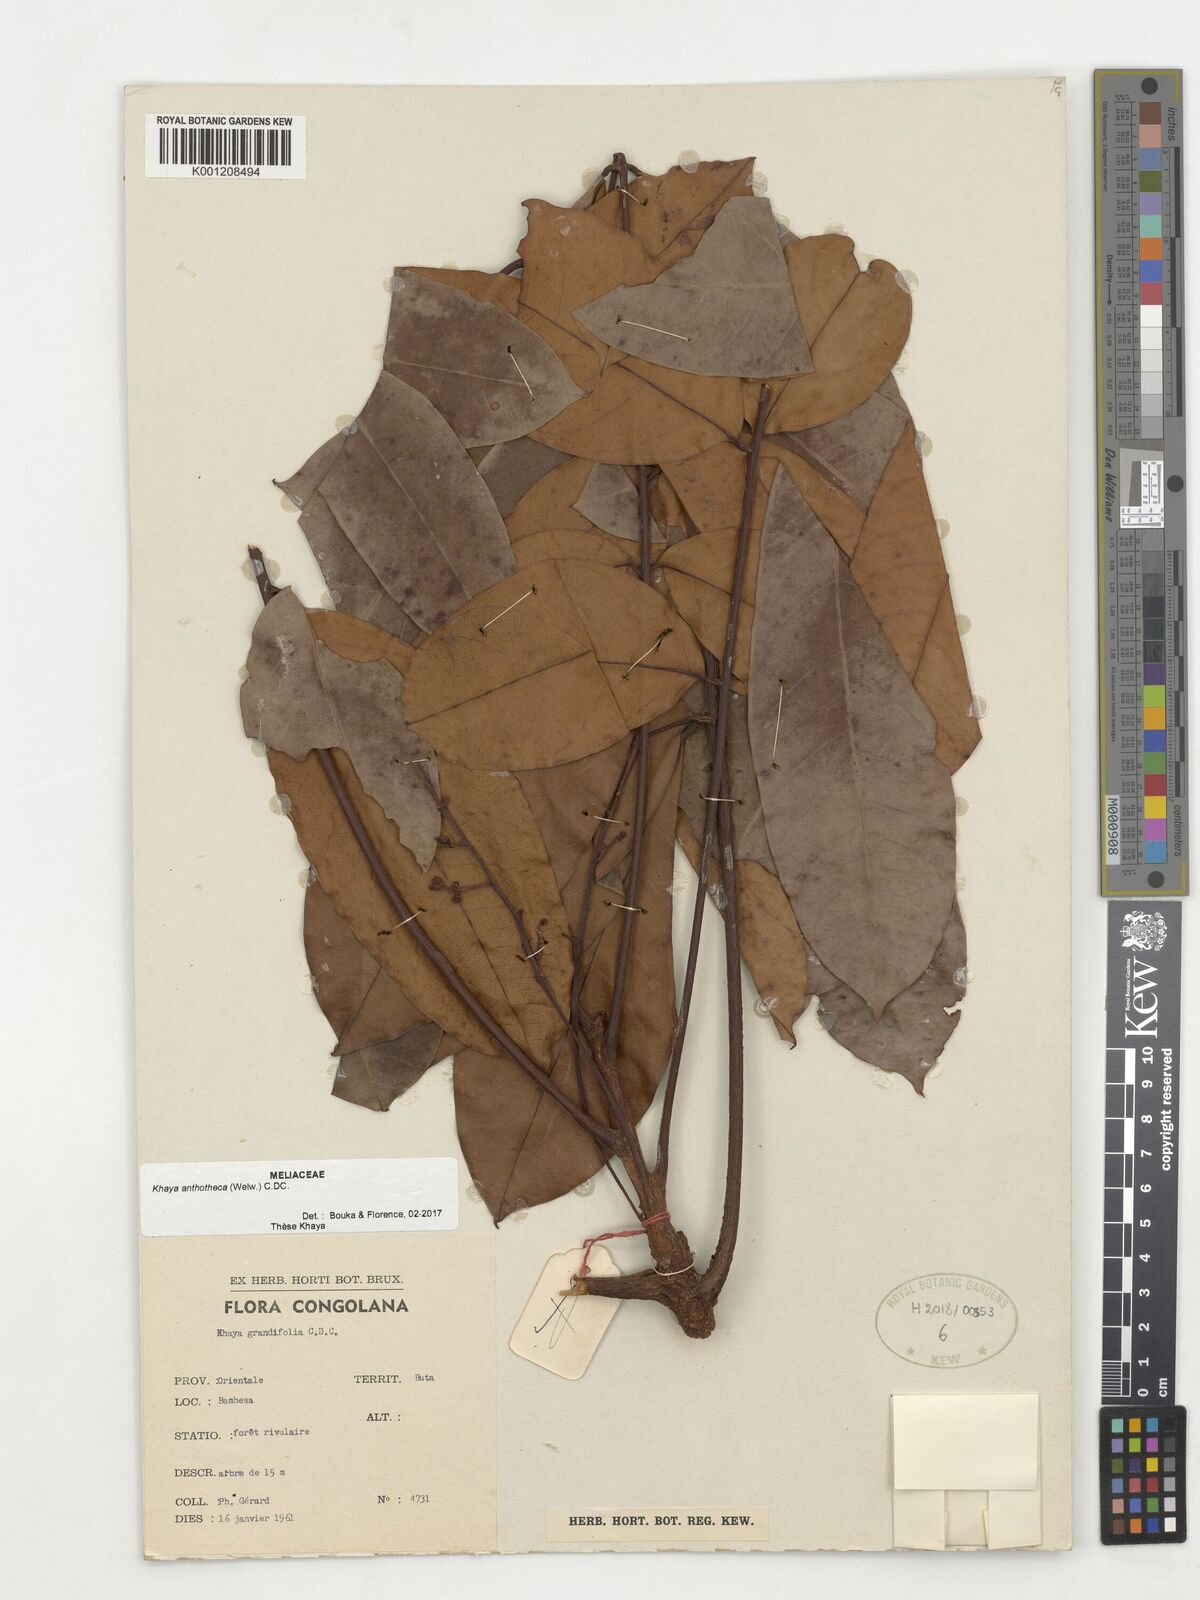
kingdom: Plantae
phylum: Tracheophyta
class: Magnoliopsida
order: Sapindales
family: Meliaceae
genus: Khaya
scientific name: Khaya anthotheca
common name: Nyasaland mahogany
